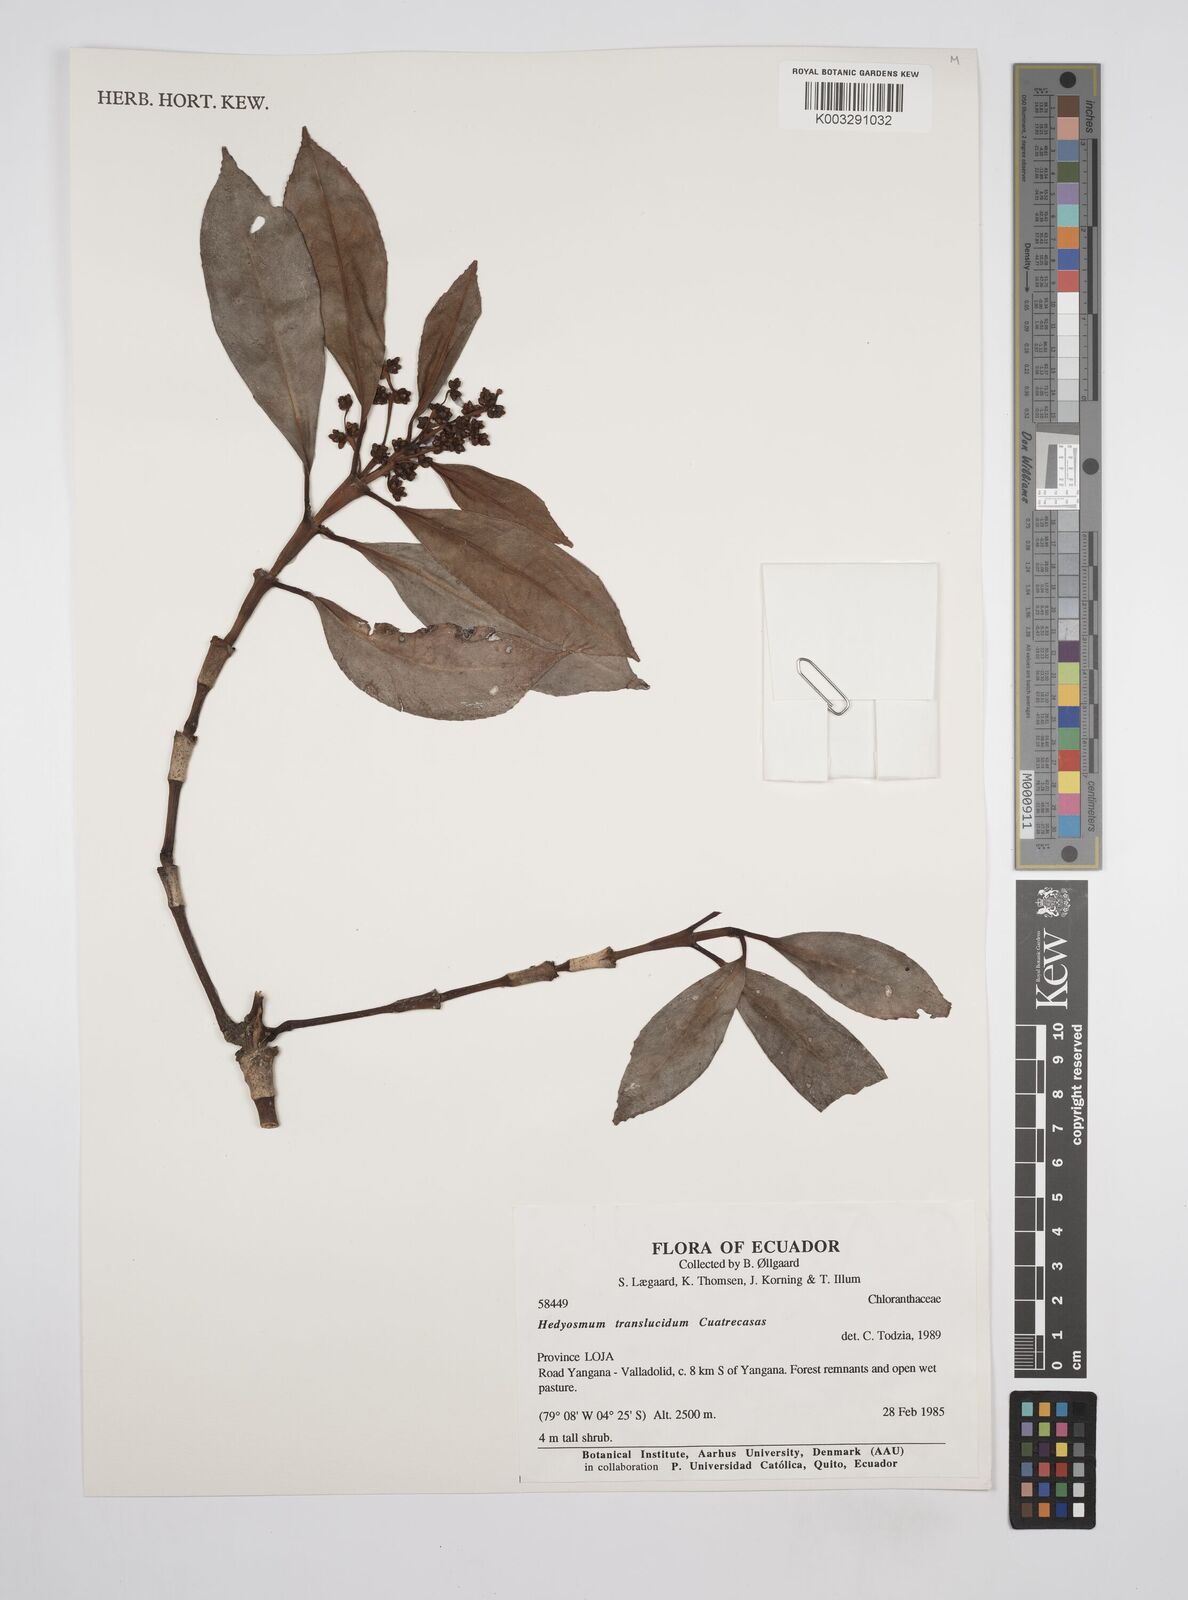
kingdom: Plantae
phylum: Tracheophyta
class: Magnoliopsida
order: Chloranthales
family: Chloranthaceae
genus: Hedyosmum
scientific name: Hedyosmum translucidum
